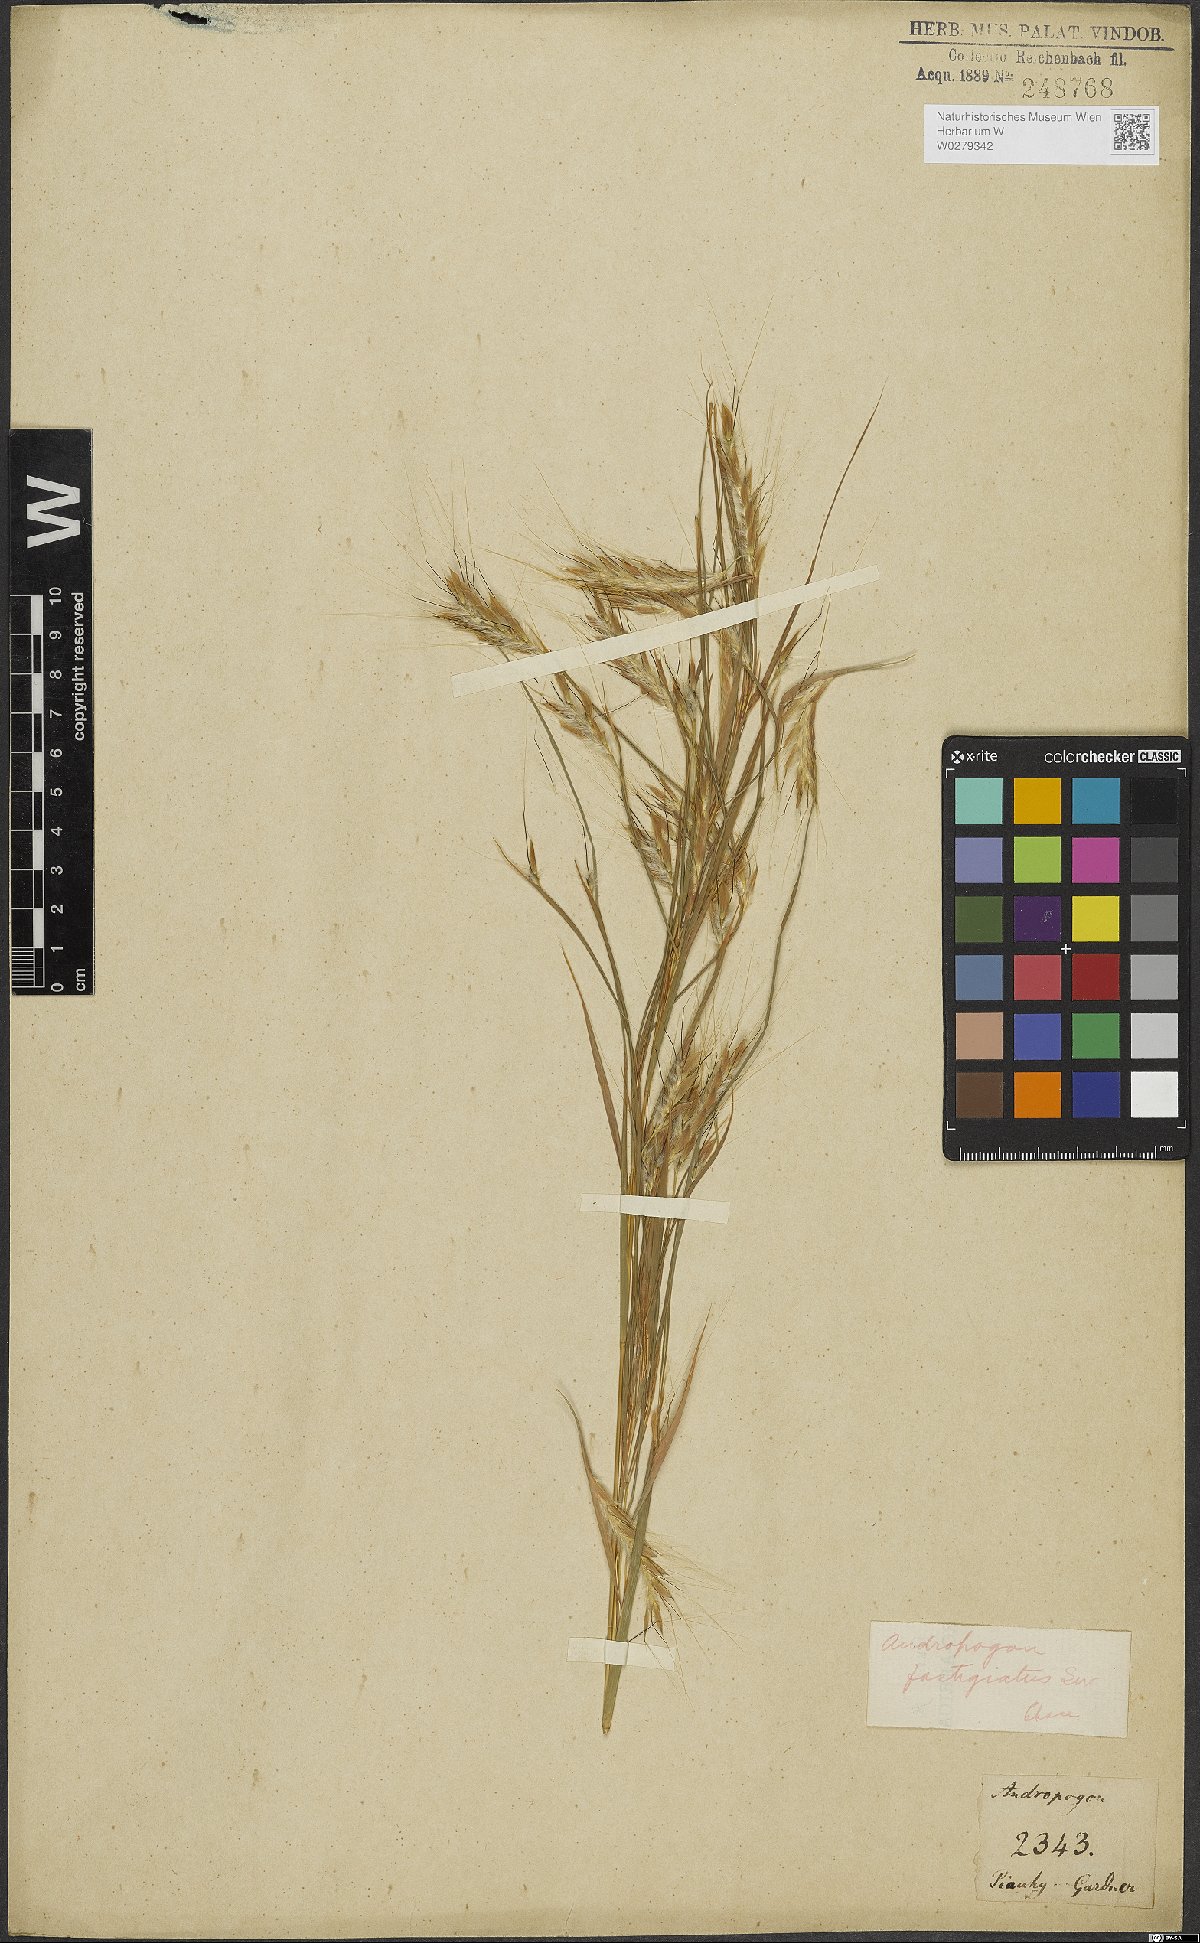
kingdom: Plantae
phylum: Tracheophyta
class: Liliopsida
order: Poales
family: Poaceae
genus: Diectomis
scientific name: Diectomis fastigiata
